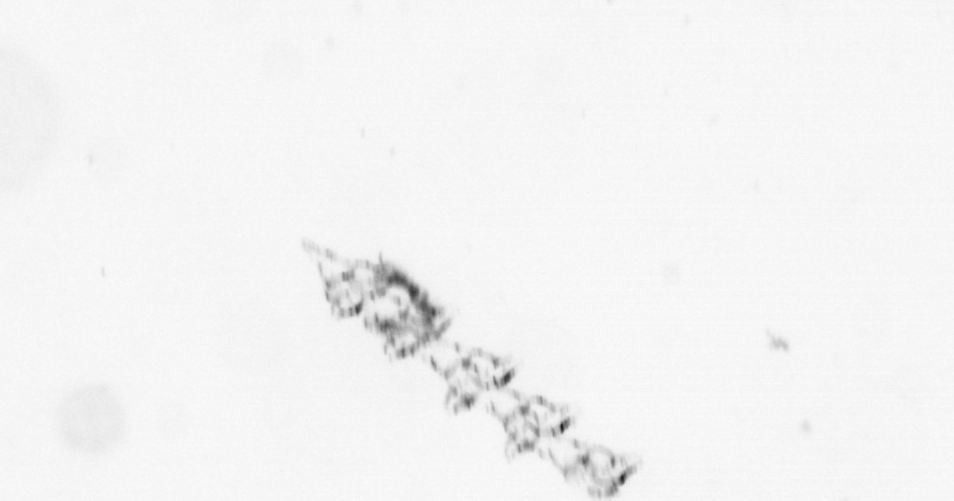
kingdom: Chromista
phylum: Ochrophyta
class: Bacillariophyceae
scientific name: Bacillariophyceae
